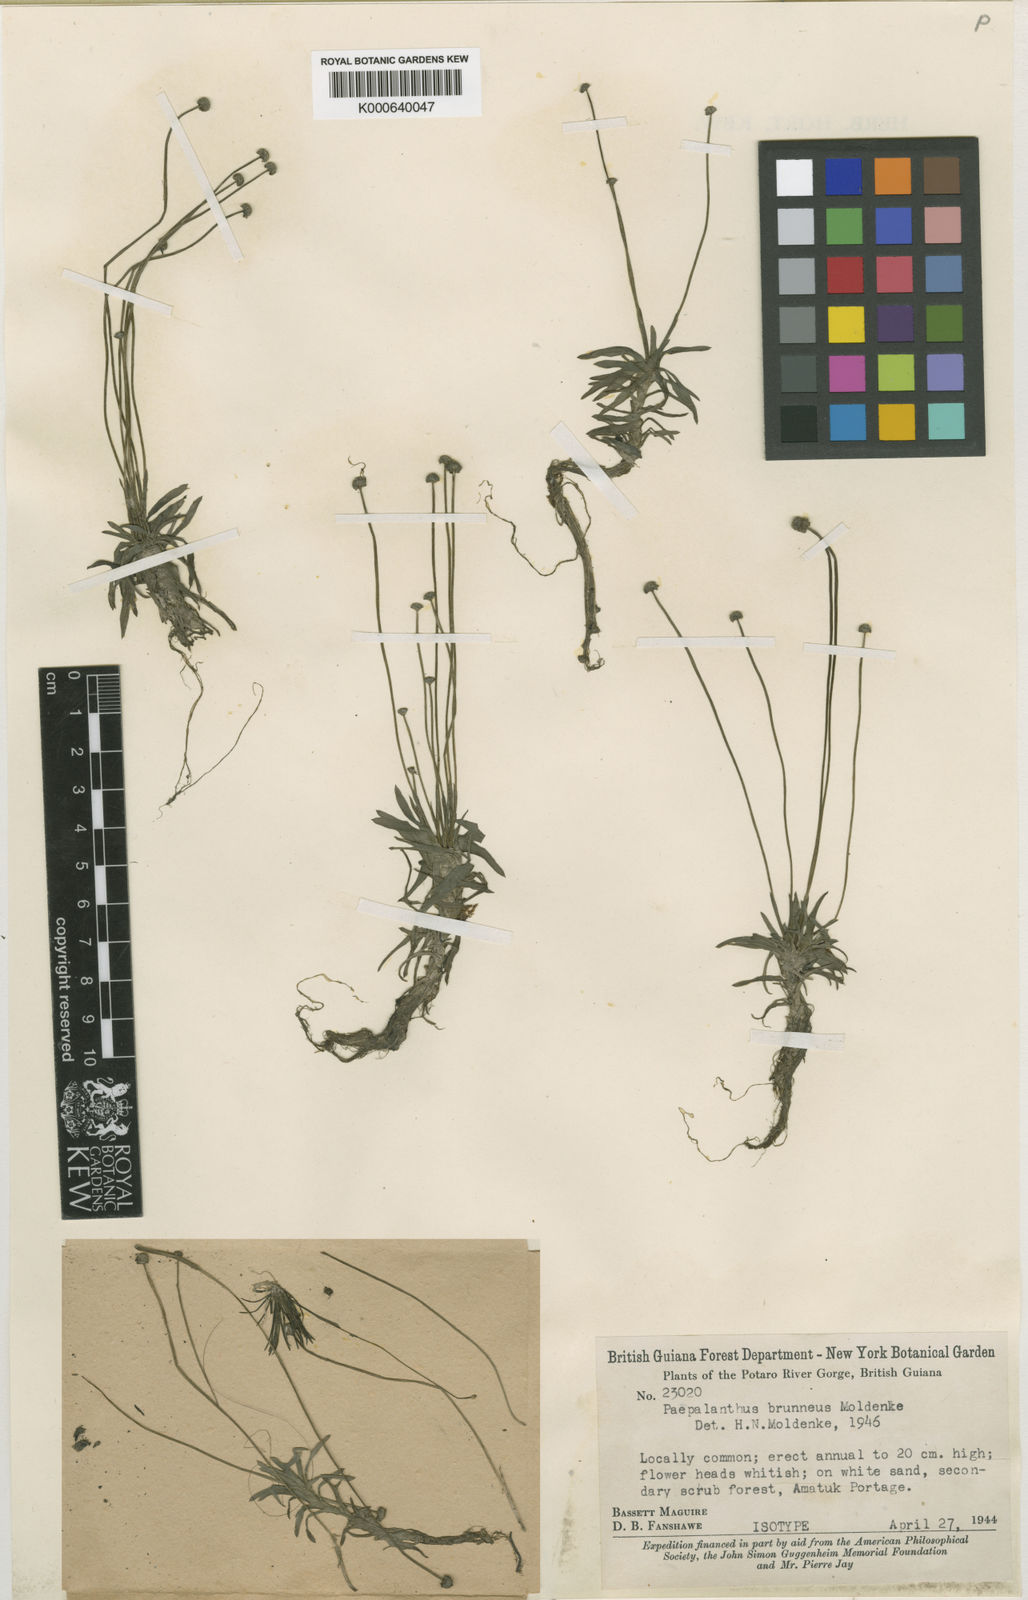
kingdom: Plantae
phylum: Tracheophyta
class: Liliopsida
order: Poales
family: Eriocaulaceae
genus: Paepalanthus
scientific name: Paepalanthus oyapockensis
